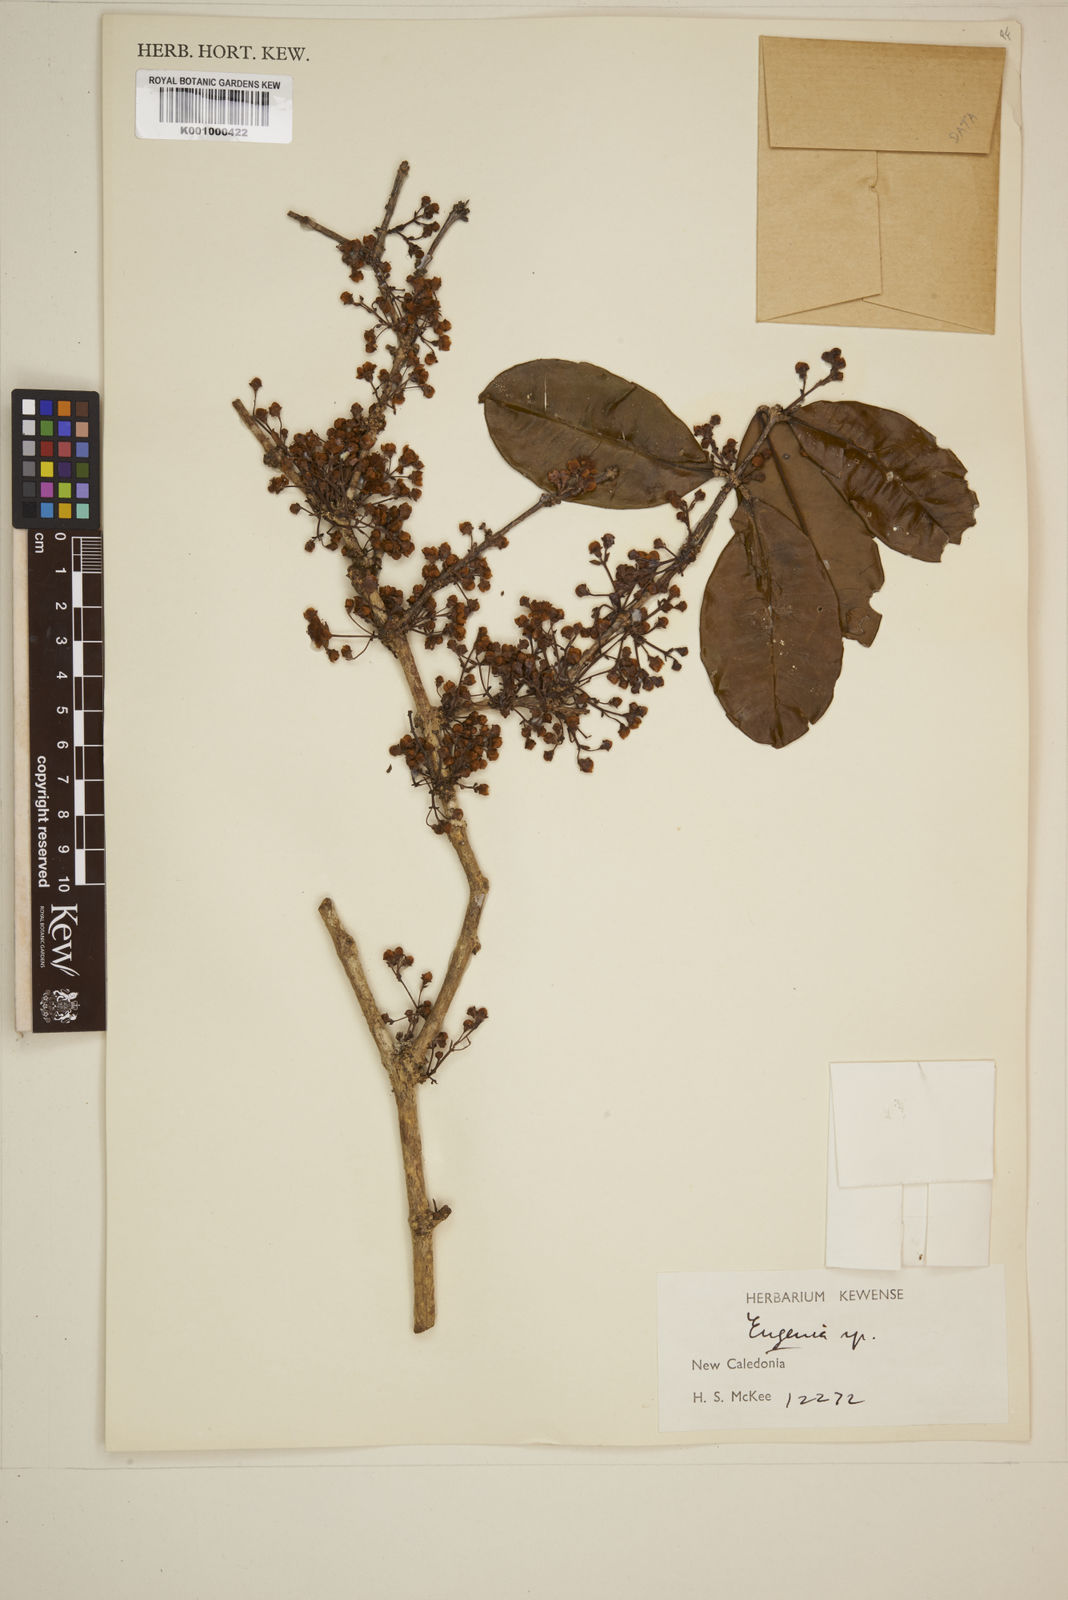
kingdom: Plantae
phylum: Tracheophyta
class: Magnoliopsida
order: Myrtales
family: Myrtaceae
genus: Eugenia
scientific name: Eugenia
